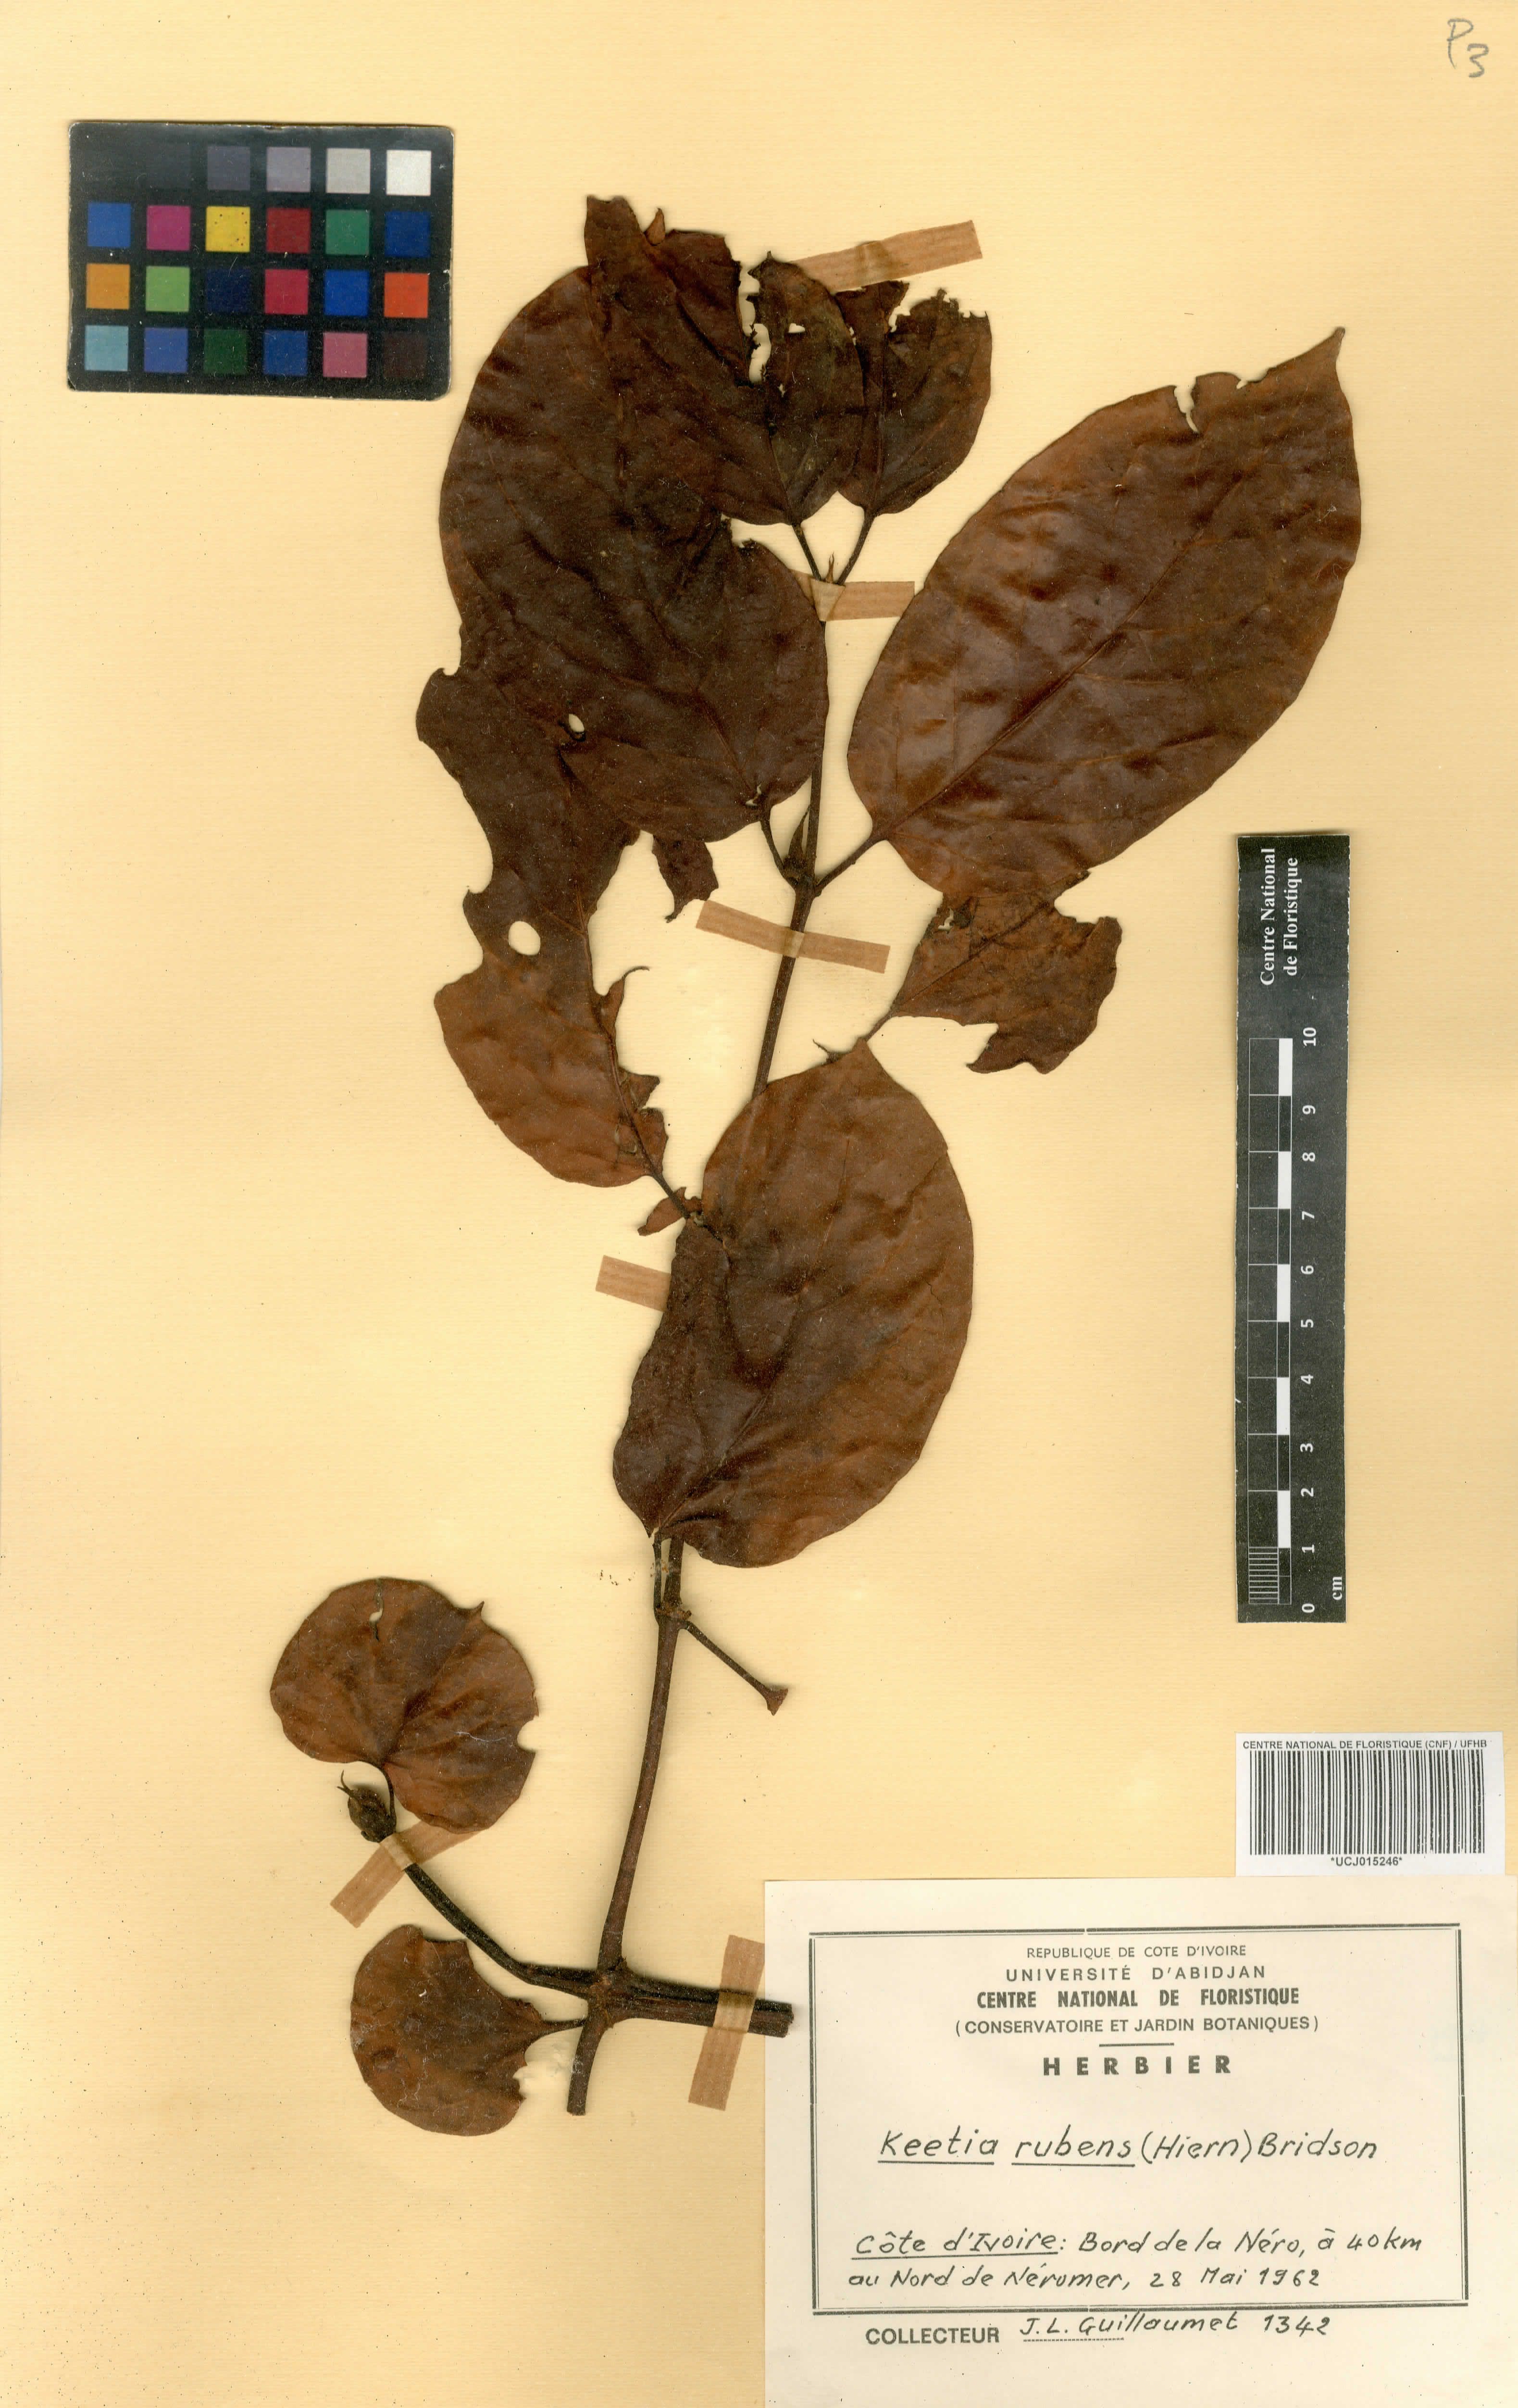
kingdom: Plantae
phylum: Tracheophyta
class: Magnoliopsida
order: Gentianales
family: Rubiaceae
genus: Keetia
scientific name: Keetia rubens
